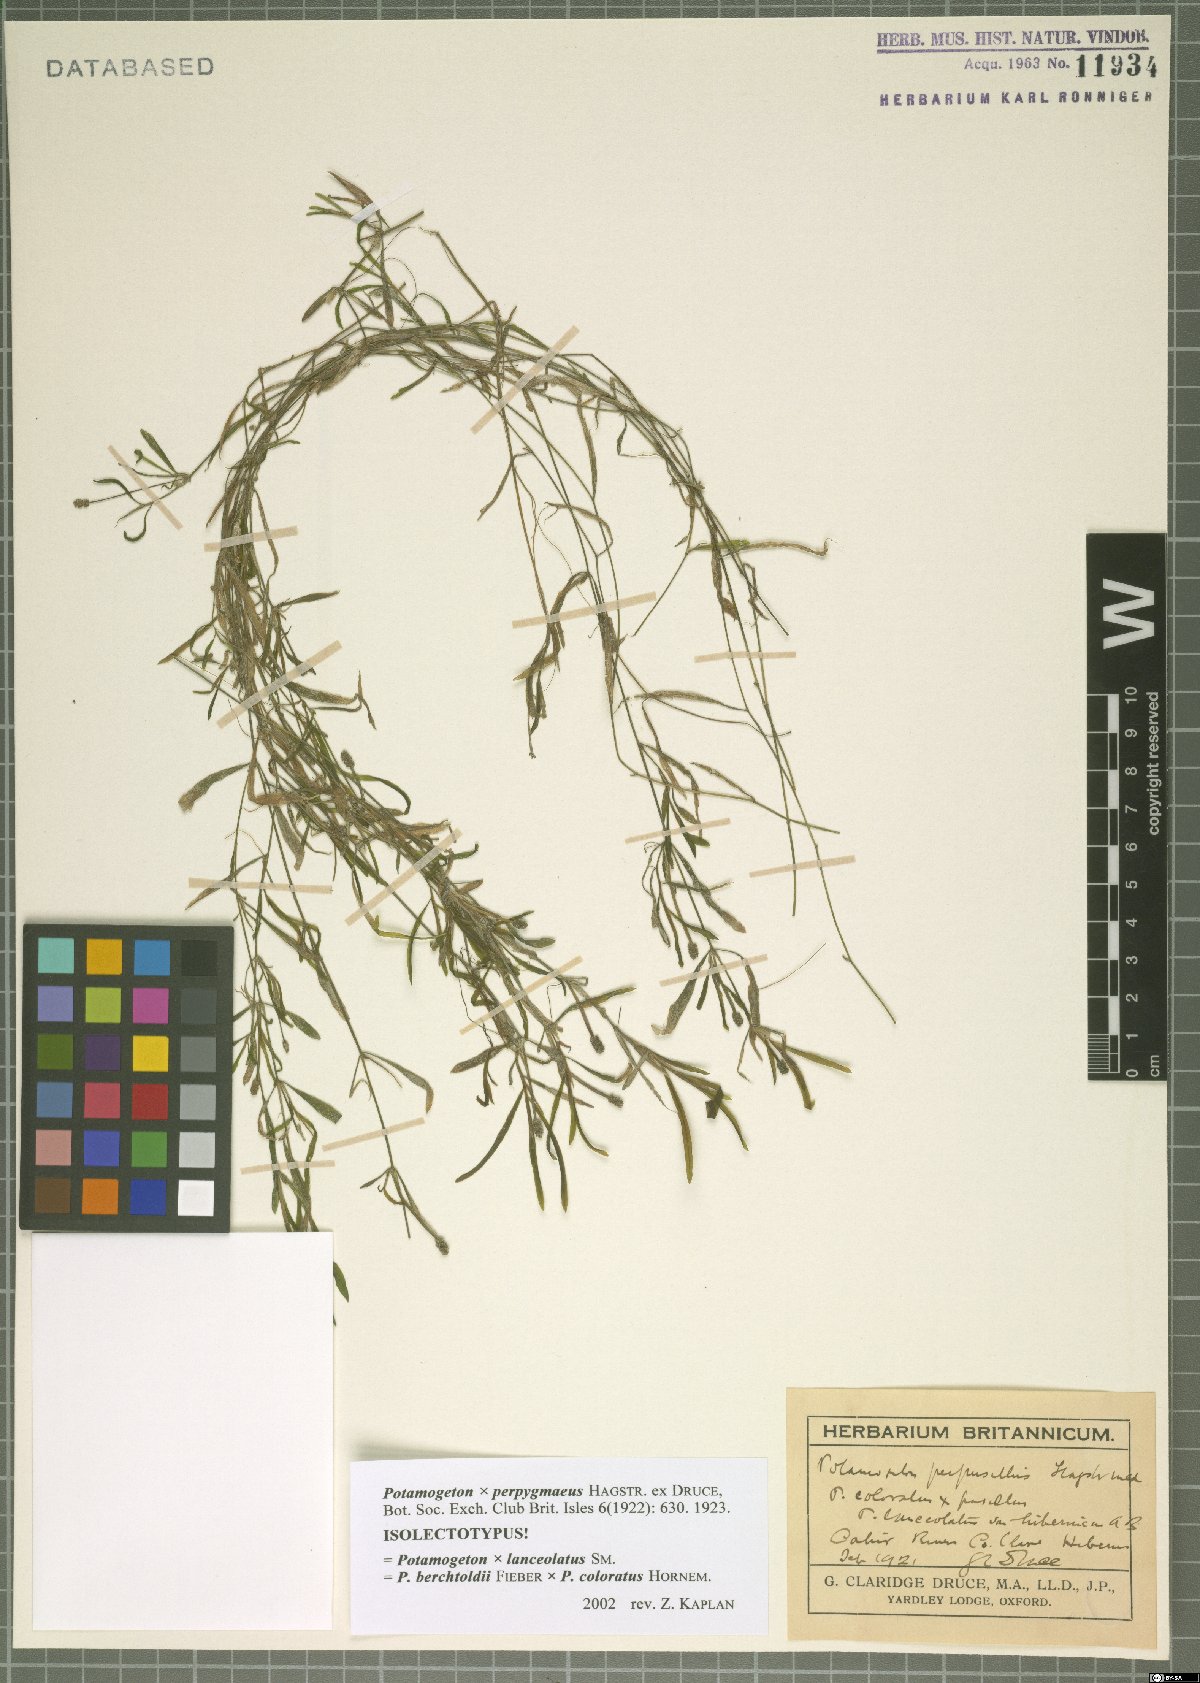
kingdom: Plantae
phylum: Tracheophyta
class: Liliopsida
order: Alismatales
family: Potamogetonaceae
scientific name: Potamogetonaceae
